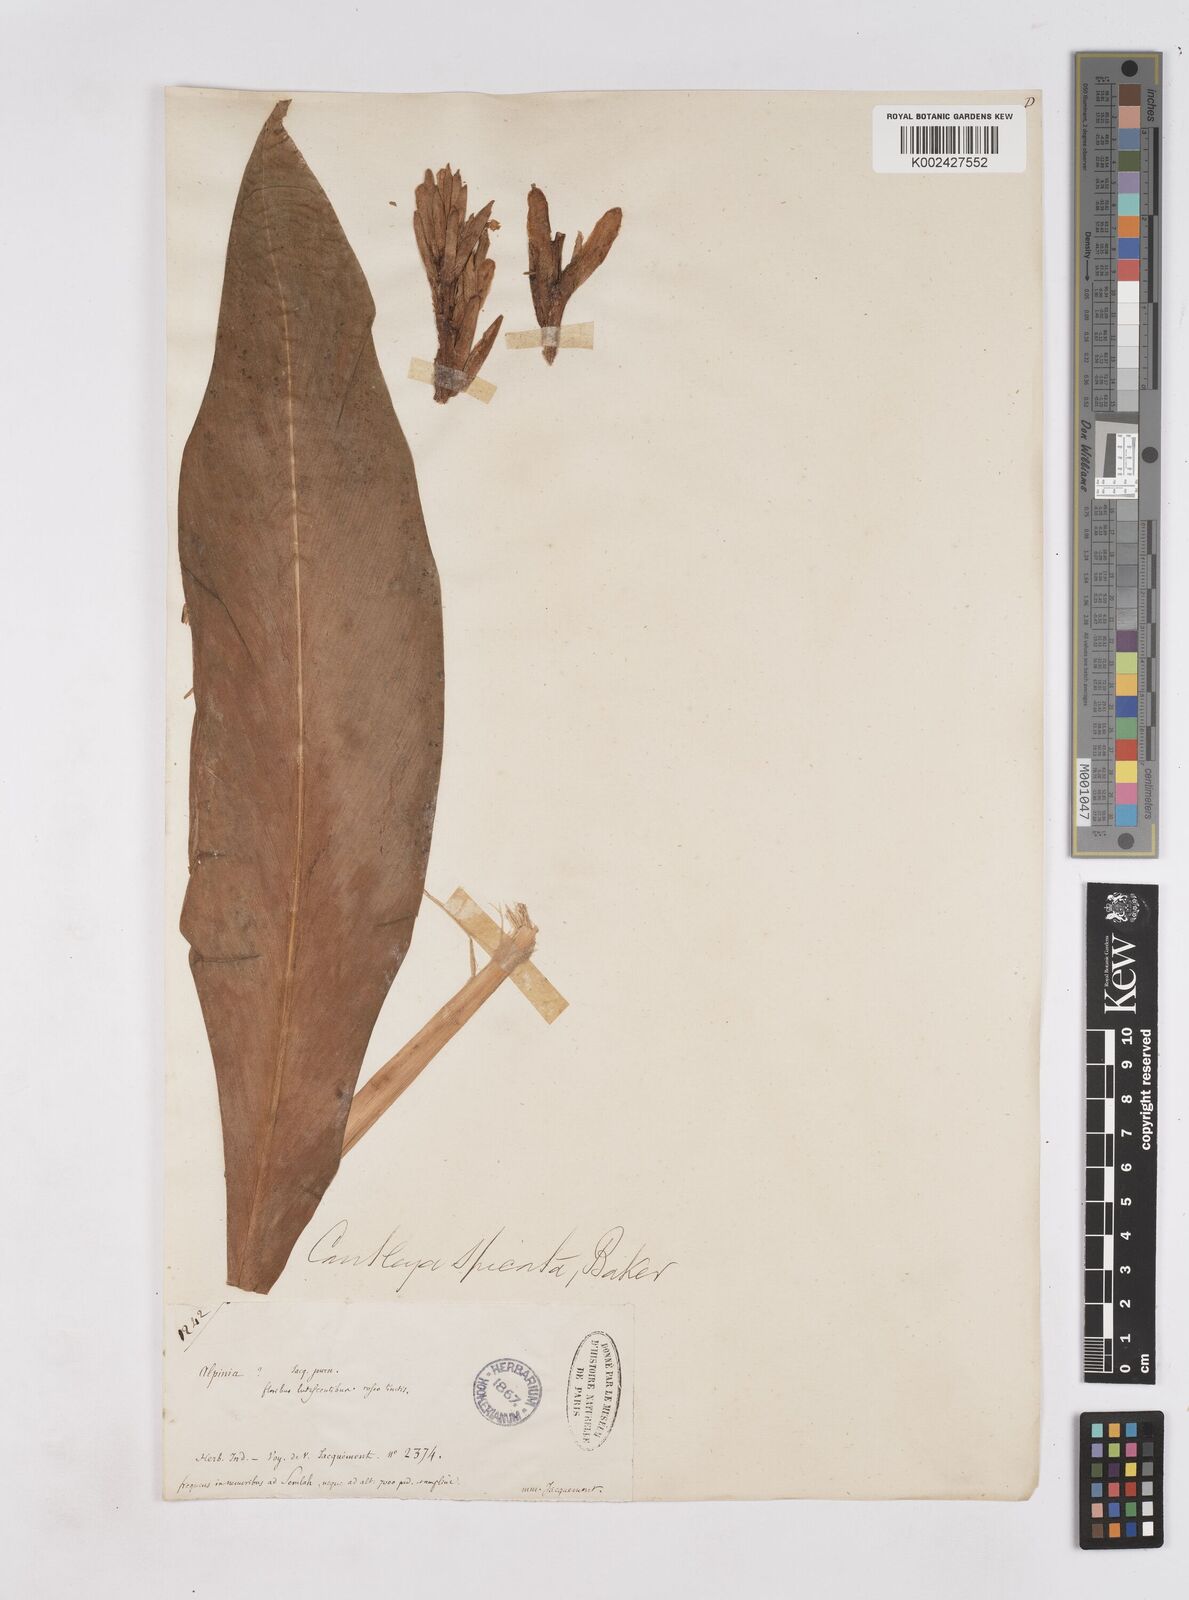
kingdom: Plantae
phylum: Tracheophyta
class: Liliopsida
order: Zingiberales
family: Zingiberaceae
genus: Cautleya
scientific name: Cautleya spicata
